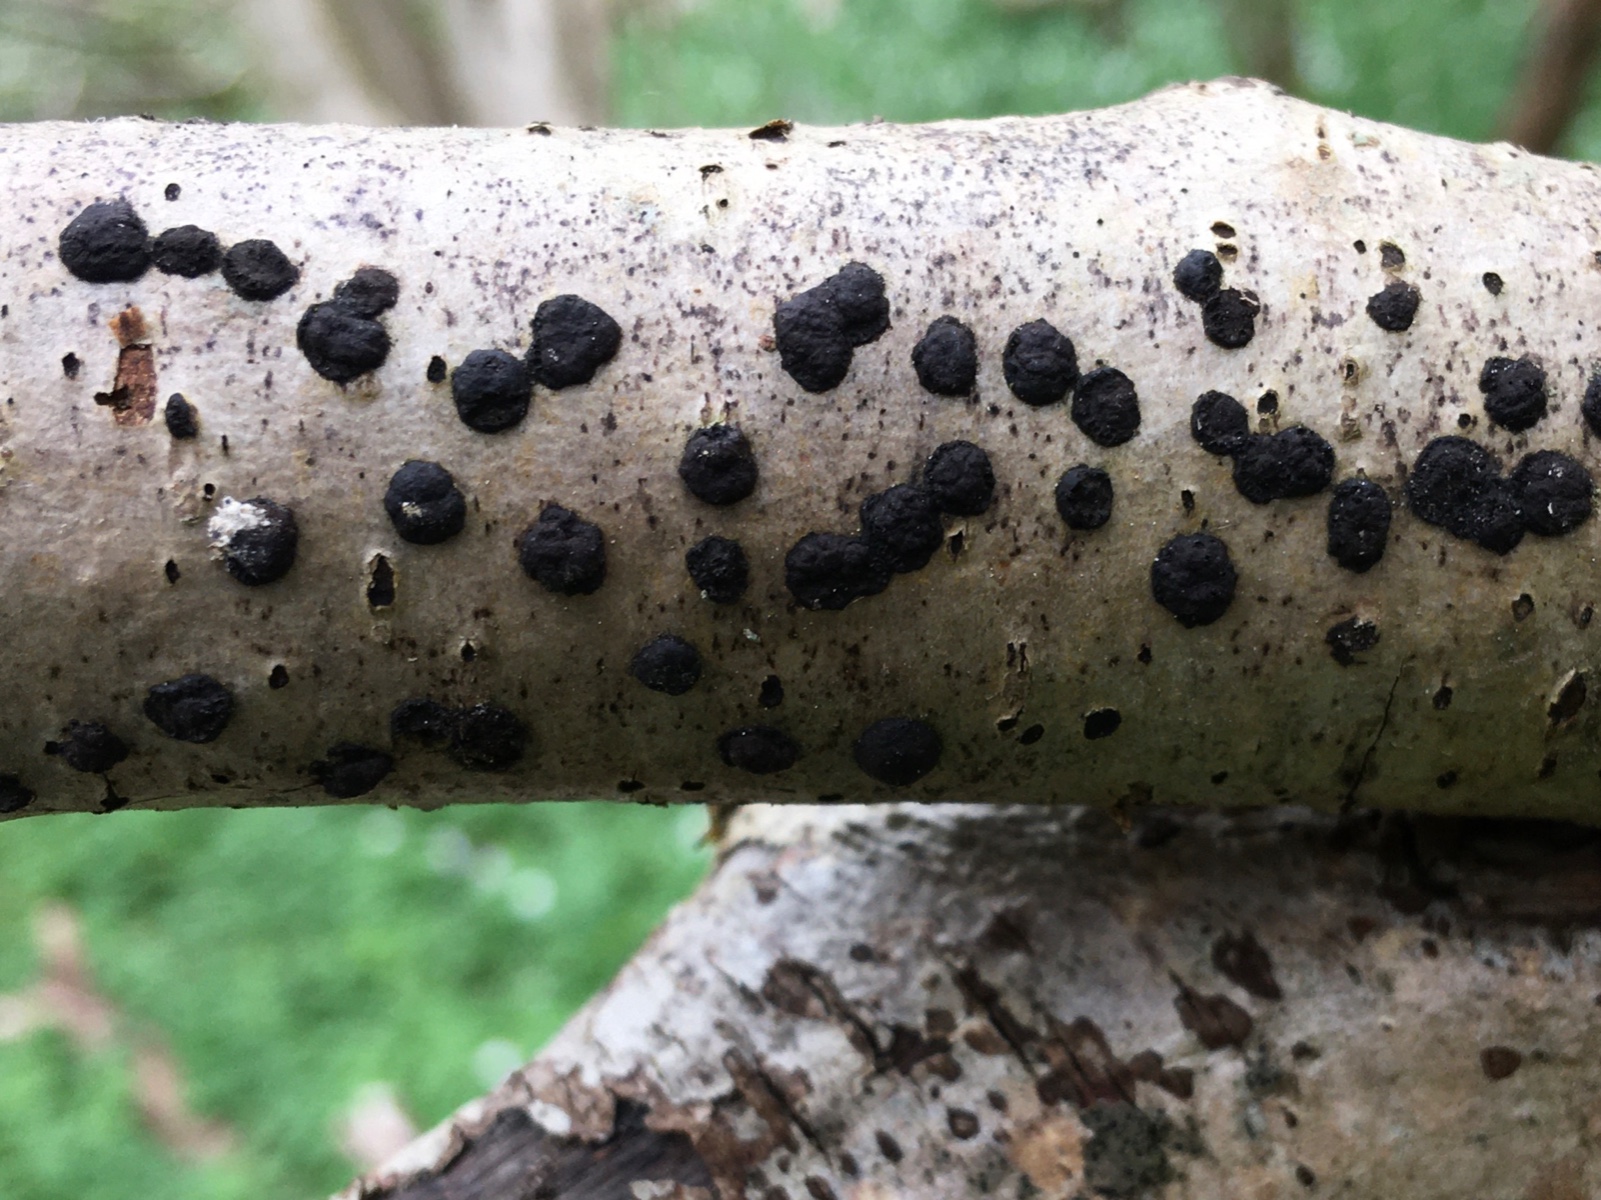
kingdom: Fungi
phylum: Ascomycota
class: Sordariomycetes
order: Xylariales
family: Hypoxylaceae
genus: Hypoxylon
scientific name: Hypoxylon fuscum
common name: kegleformet kulbær
